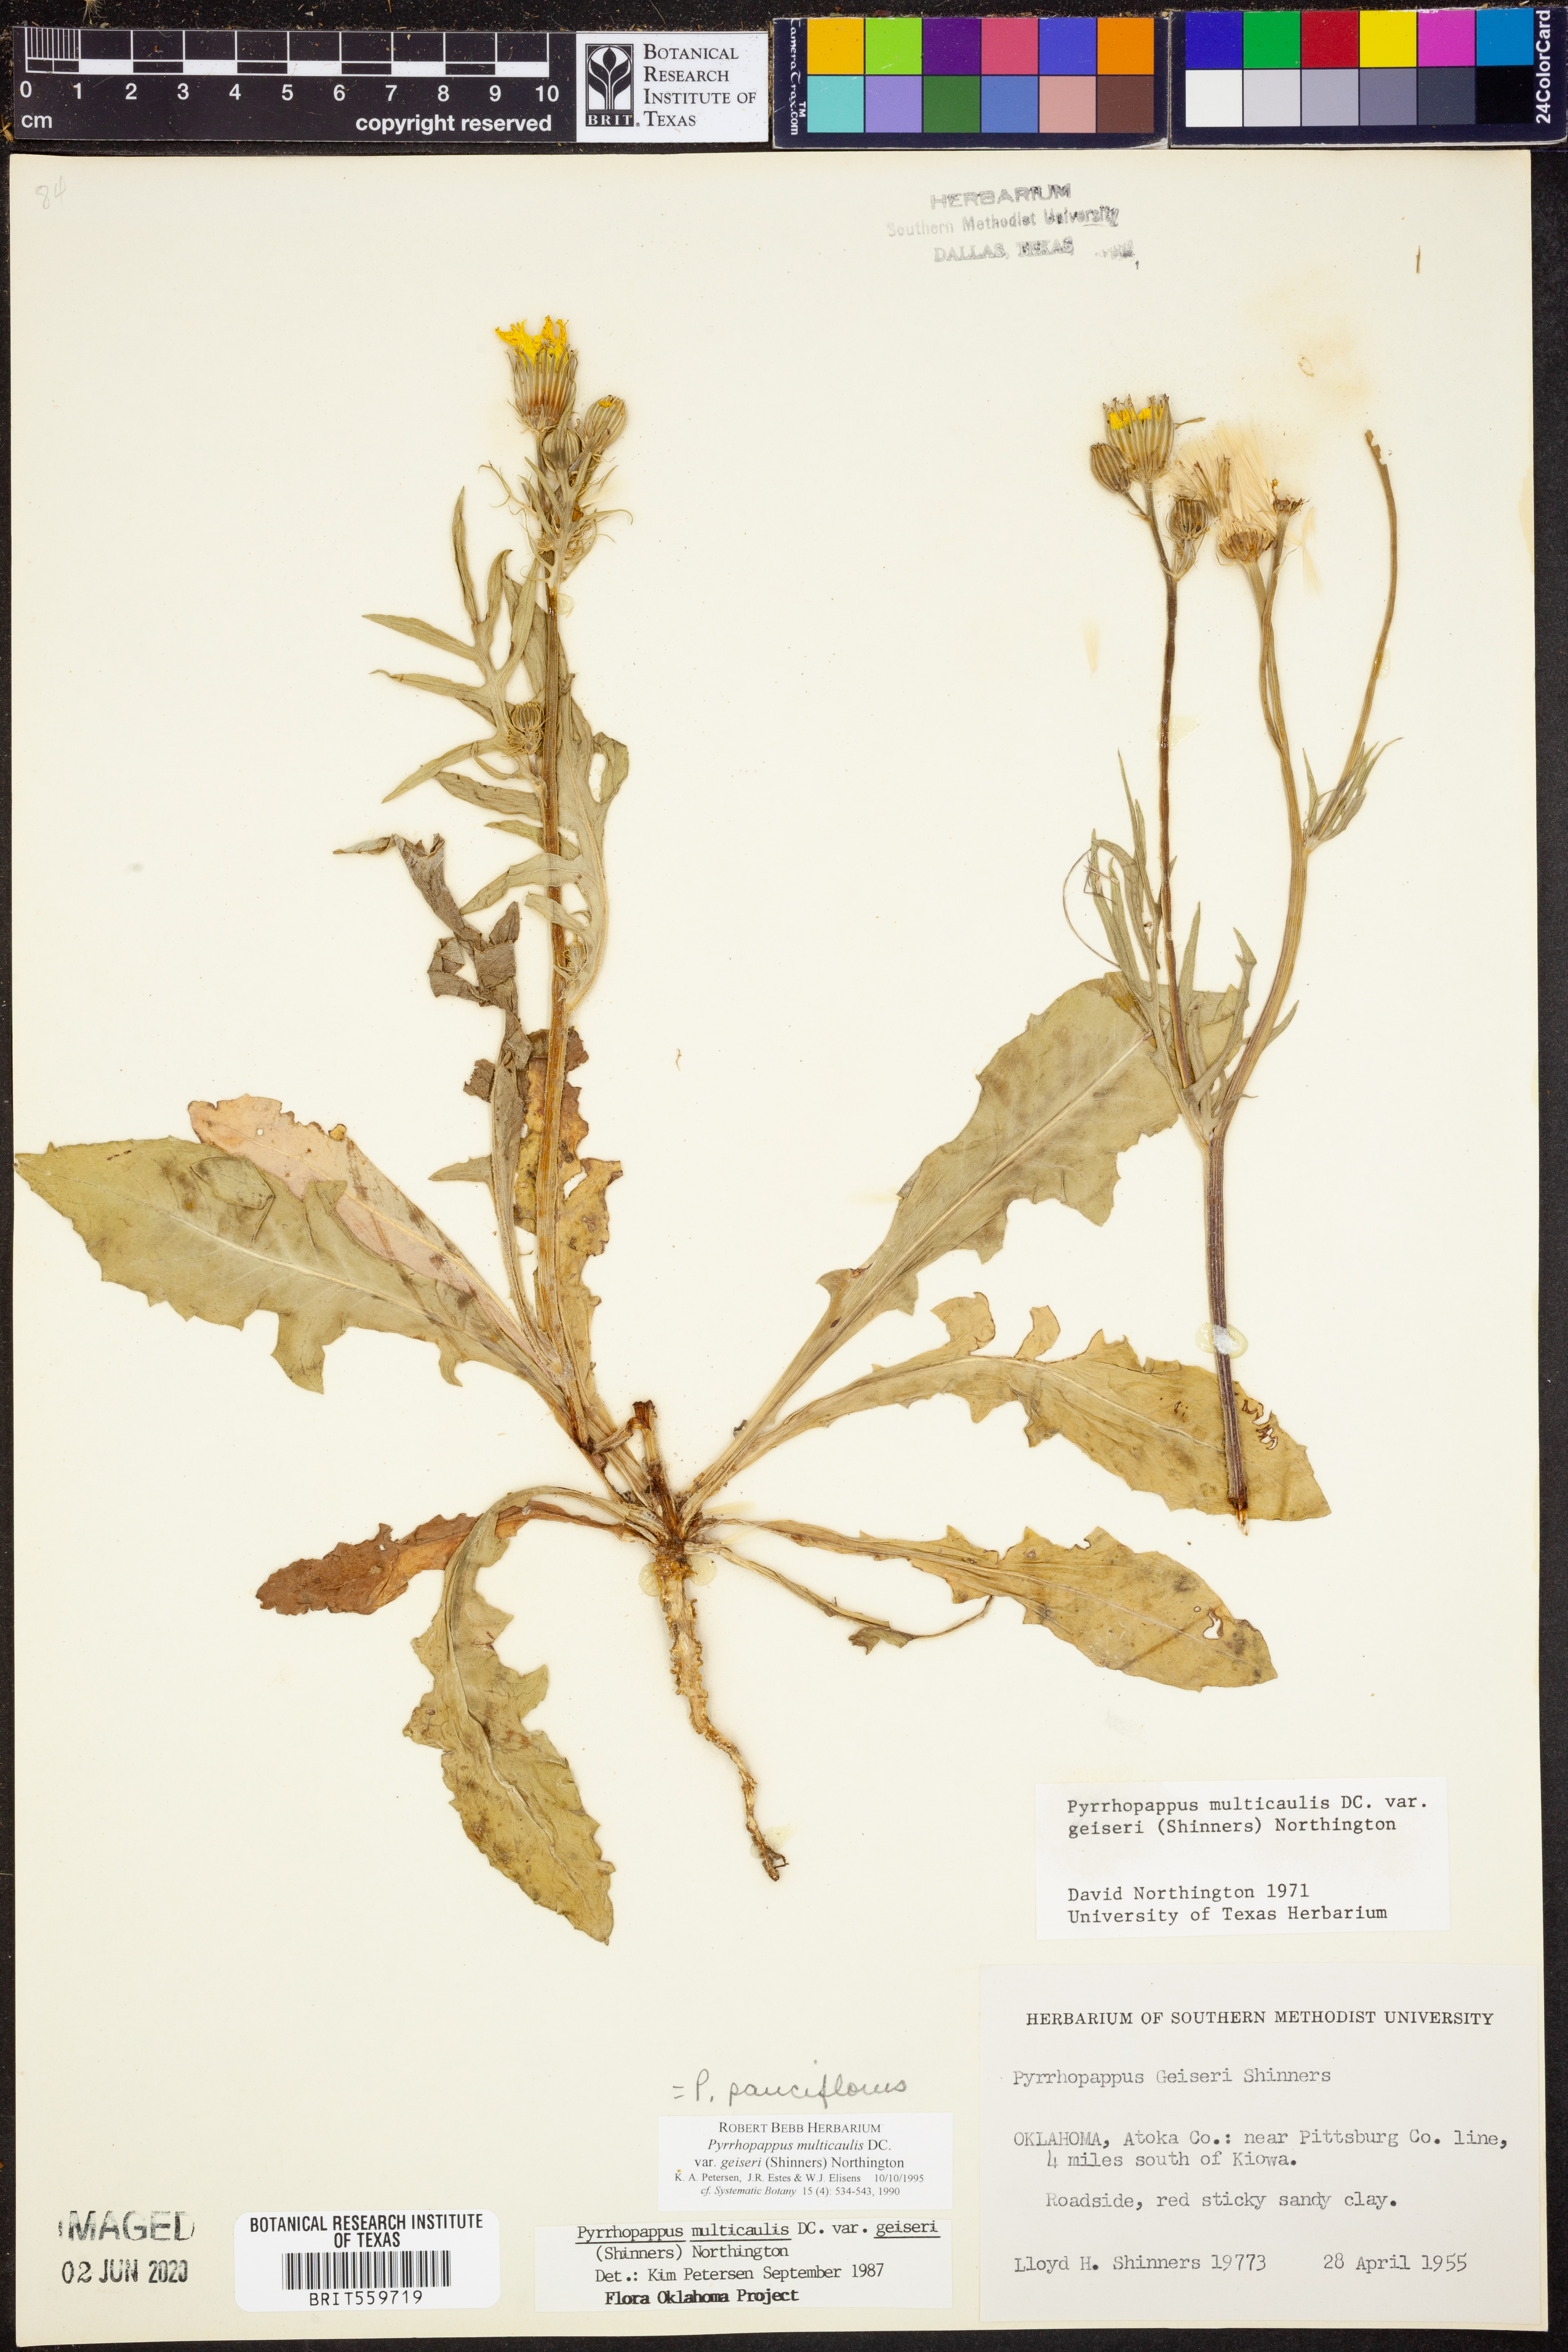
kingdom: Plantae
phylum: Tracheophyta
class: Magnoliopsida
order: Asterales
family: Asteraceae
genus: Pyrrhopappus
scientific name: Pyrrhopappus pauciflorus
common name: Texas false dandelion
